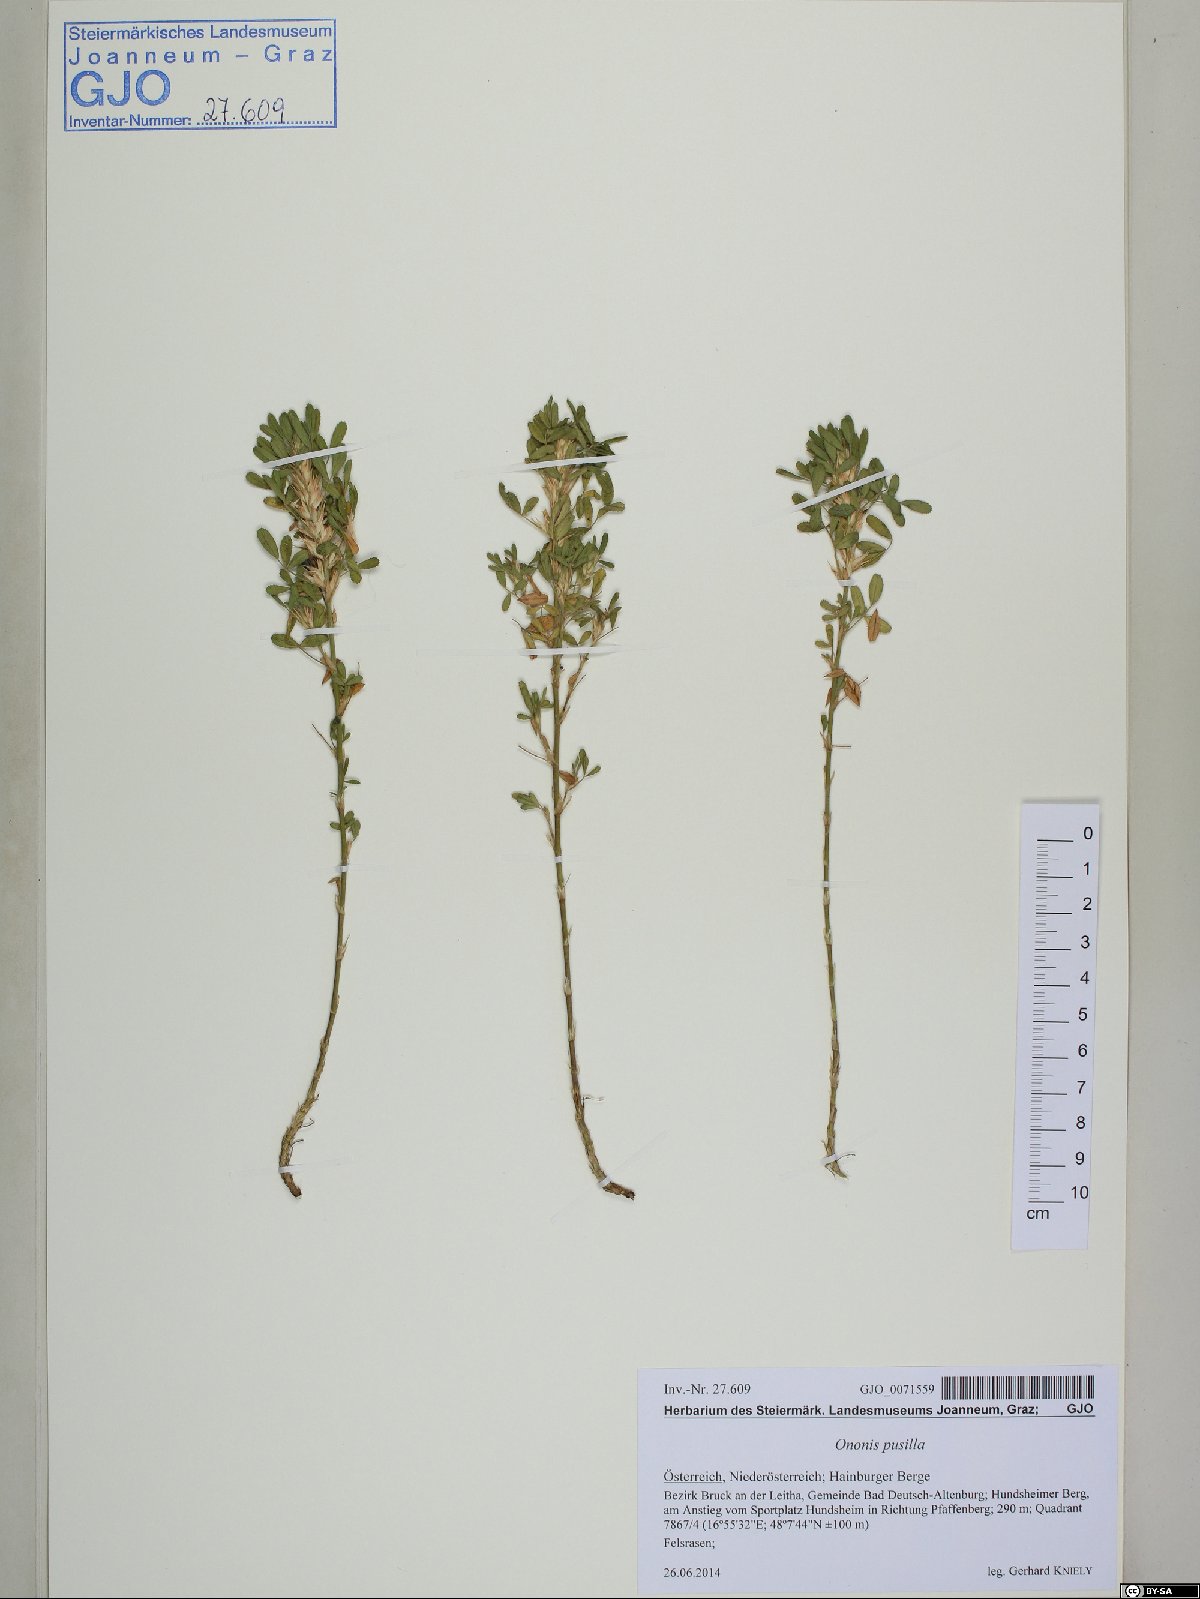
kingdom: Plantae
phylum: Tracheophyta
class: Magnoliopsida
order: Fabales
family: Fabaceae
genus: Ononis
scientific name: Ononis pusilla
